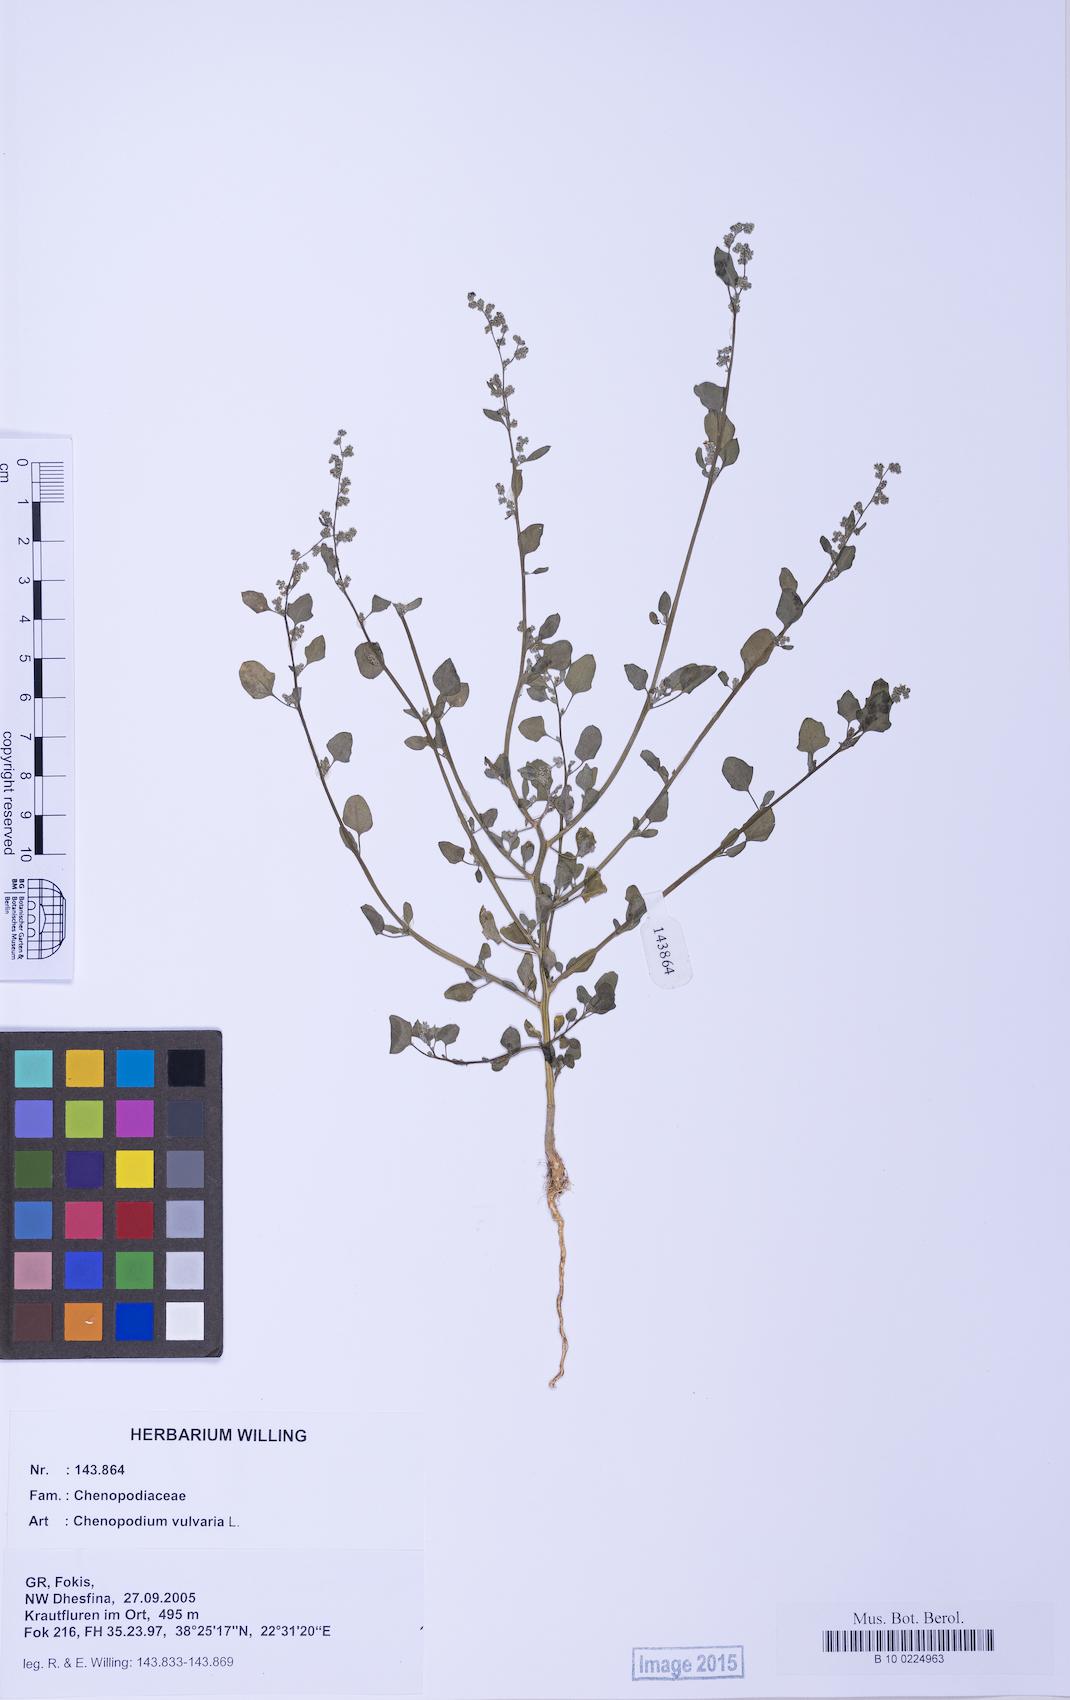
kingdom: Plantae
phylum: Tracheophyta
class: Magnoliopsida
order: Caryophyllales
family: Amaranthaceae
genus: Chenopodium
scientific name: Chenopodium vulvaria
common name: Stinking goosefoot
